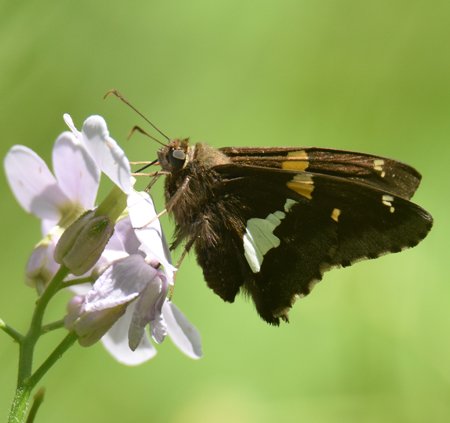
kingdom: Animalia
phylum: Arthropoda
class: Insecta
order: Lepidoptera
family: Hesperiidae
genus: Epargyreus
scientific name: Epargyreus clarus
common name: Silver-spotted Skipper
